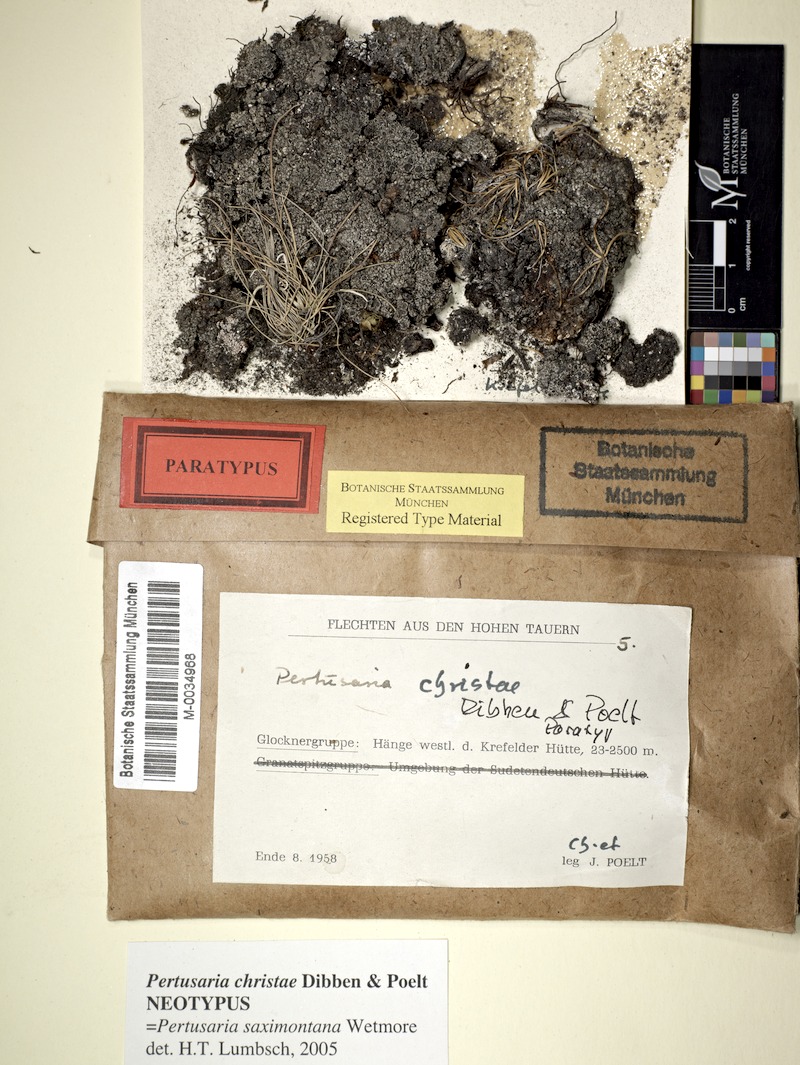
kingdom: Fungi
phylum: Ascomycota
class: Lecanoromycetes
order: Pertusariales
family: Pertusariaceae
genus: Pertusaria
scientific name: Pertusaria saximontana
